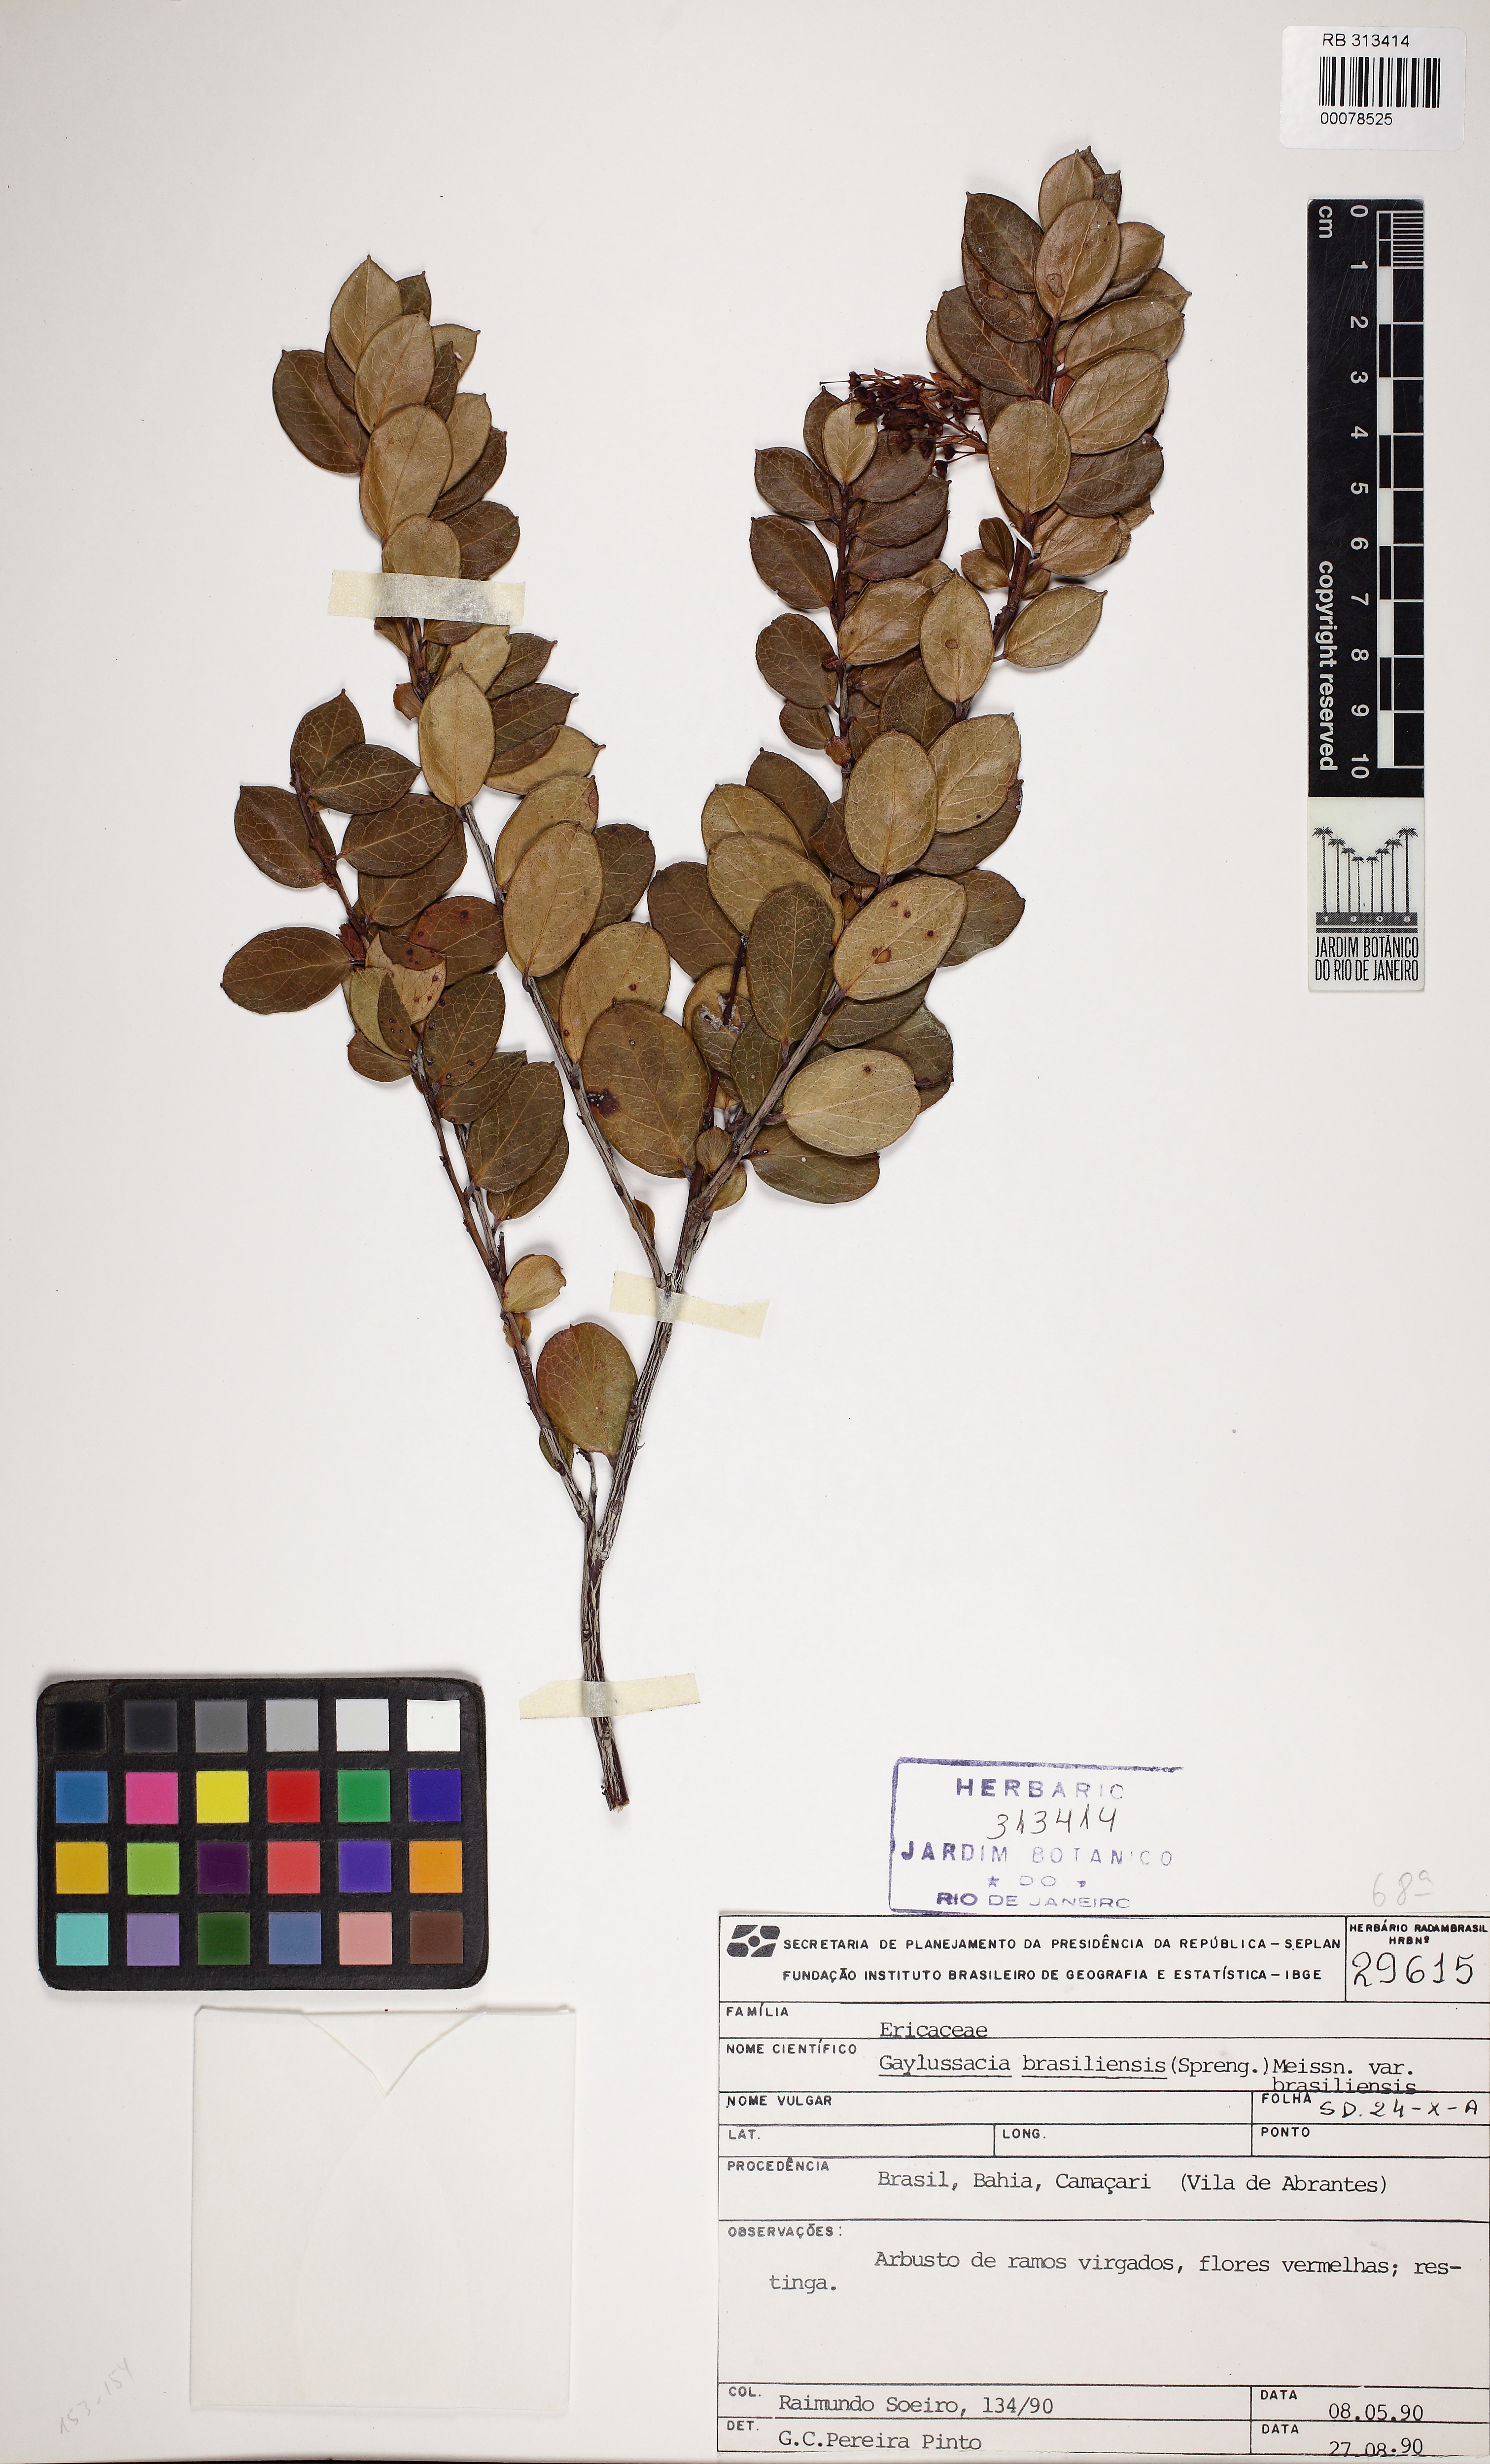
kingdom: Plantae
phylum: Tracheophyta
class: Magnoliopsida
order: Ericales
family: Ericaceae
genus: Gaylussacia
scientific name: Gaylussacia brasiliensis
